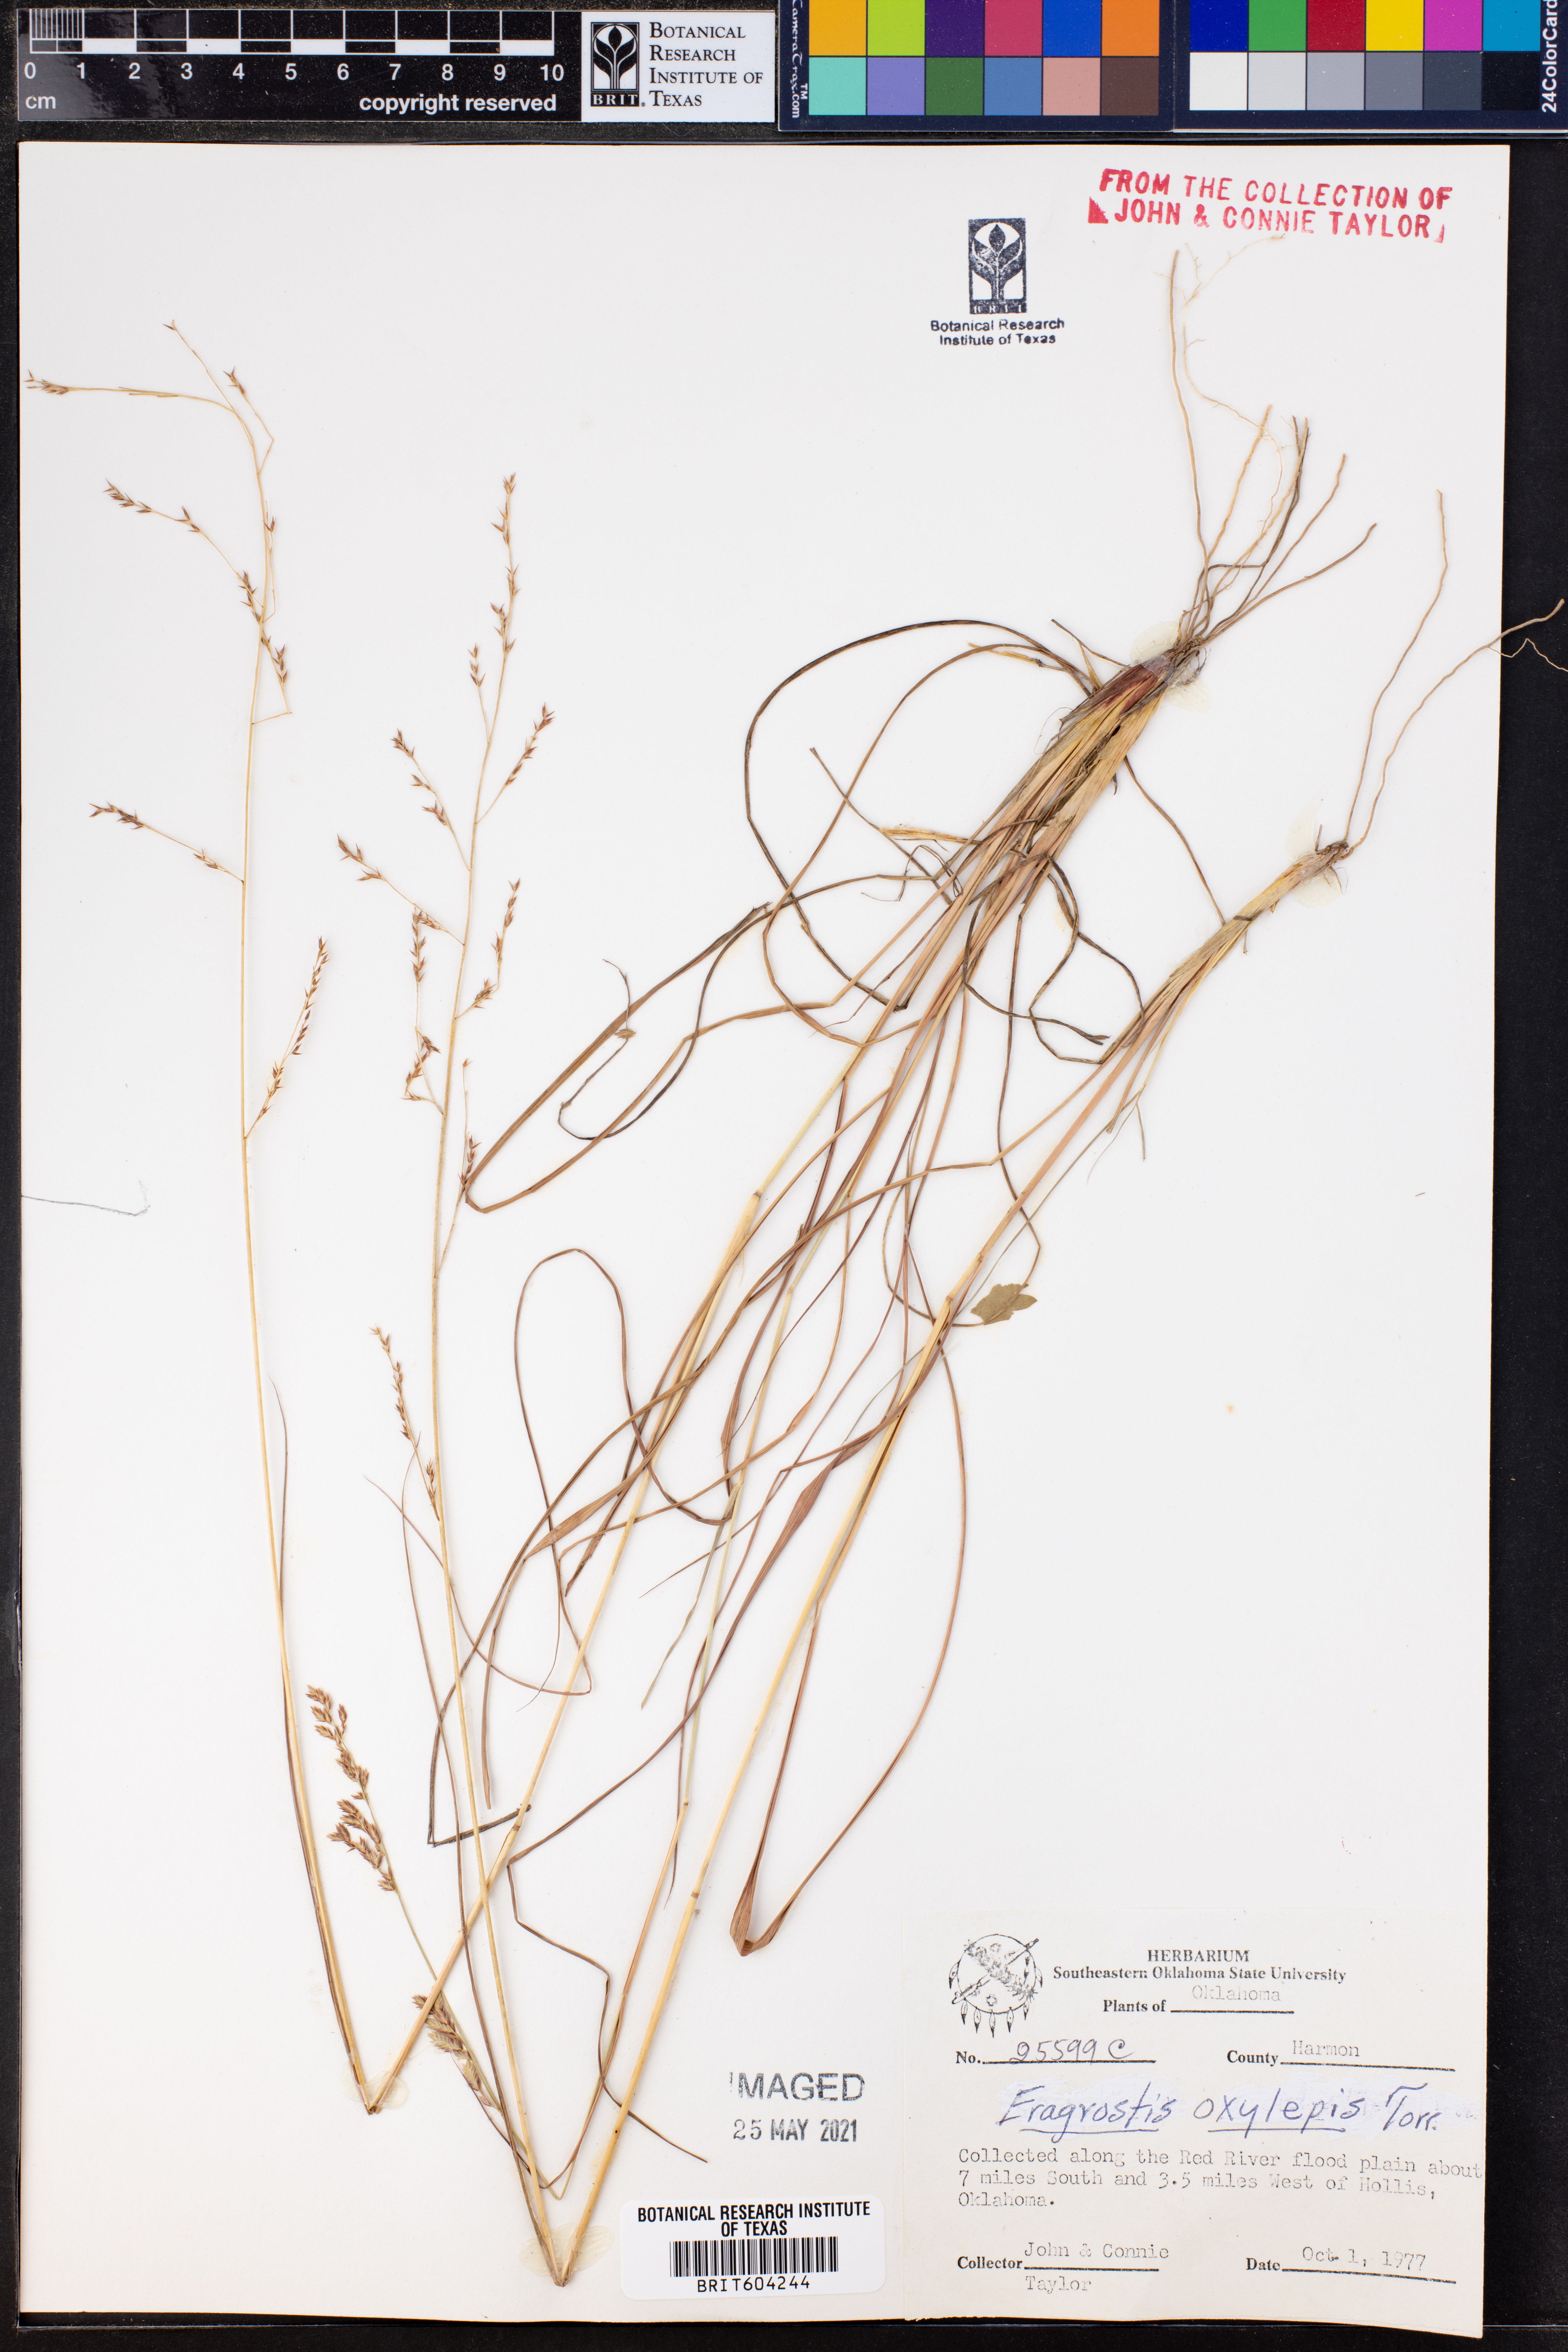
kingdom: Plantae
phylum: Tracheophyta
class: Liliopsida
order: Poales
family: Poaceae
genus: Eragrostis
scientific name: Eragrostis secundiflora
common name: Red love grass
